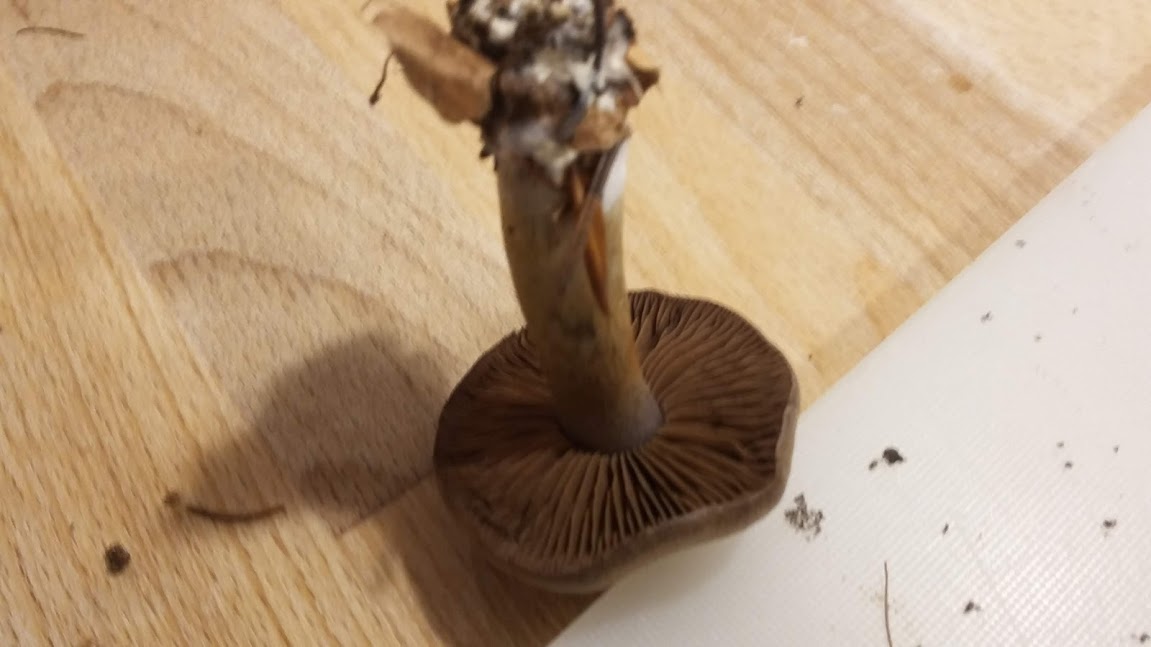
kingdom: Fungi
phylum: Basidiomycota
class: Agaricomycetes
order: Agaricales
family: Cortinariaceae
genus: Cortinarius
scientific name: Cortinarius
